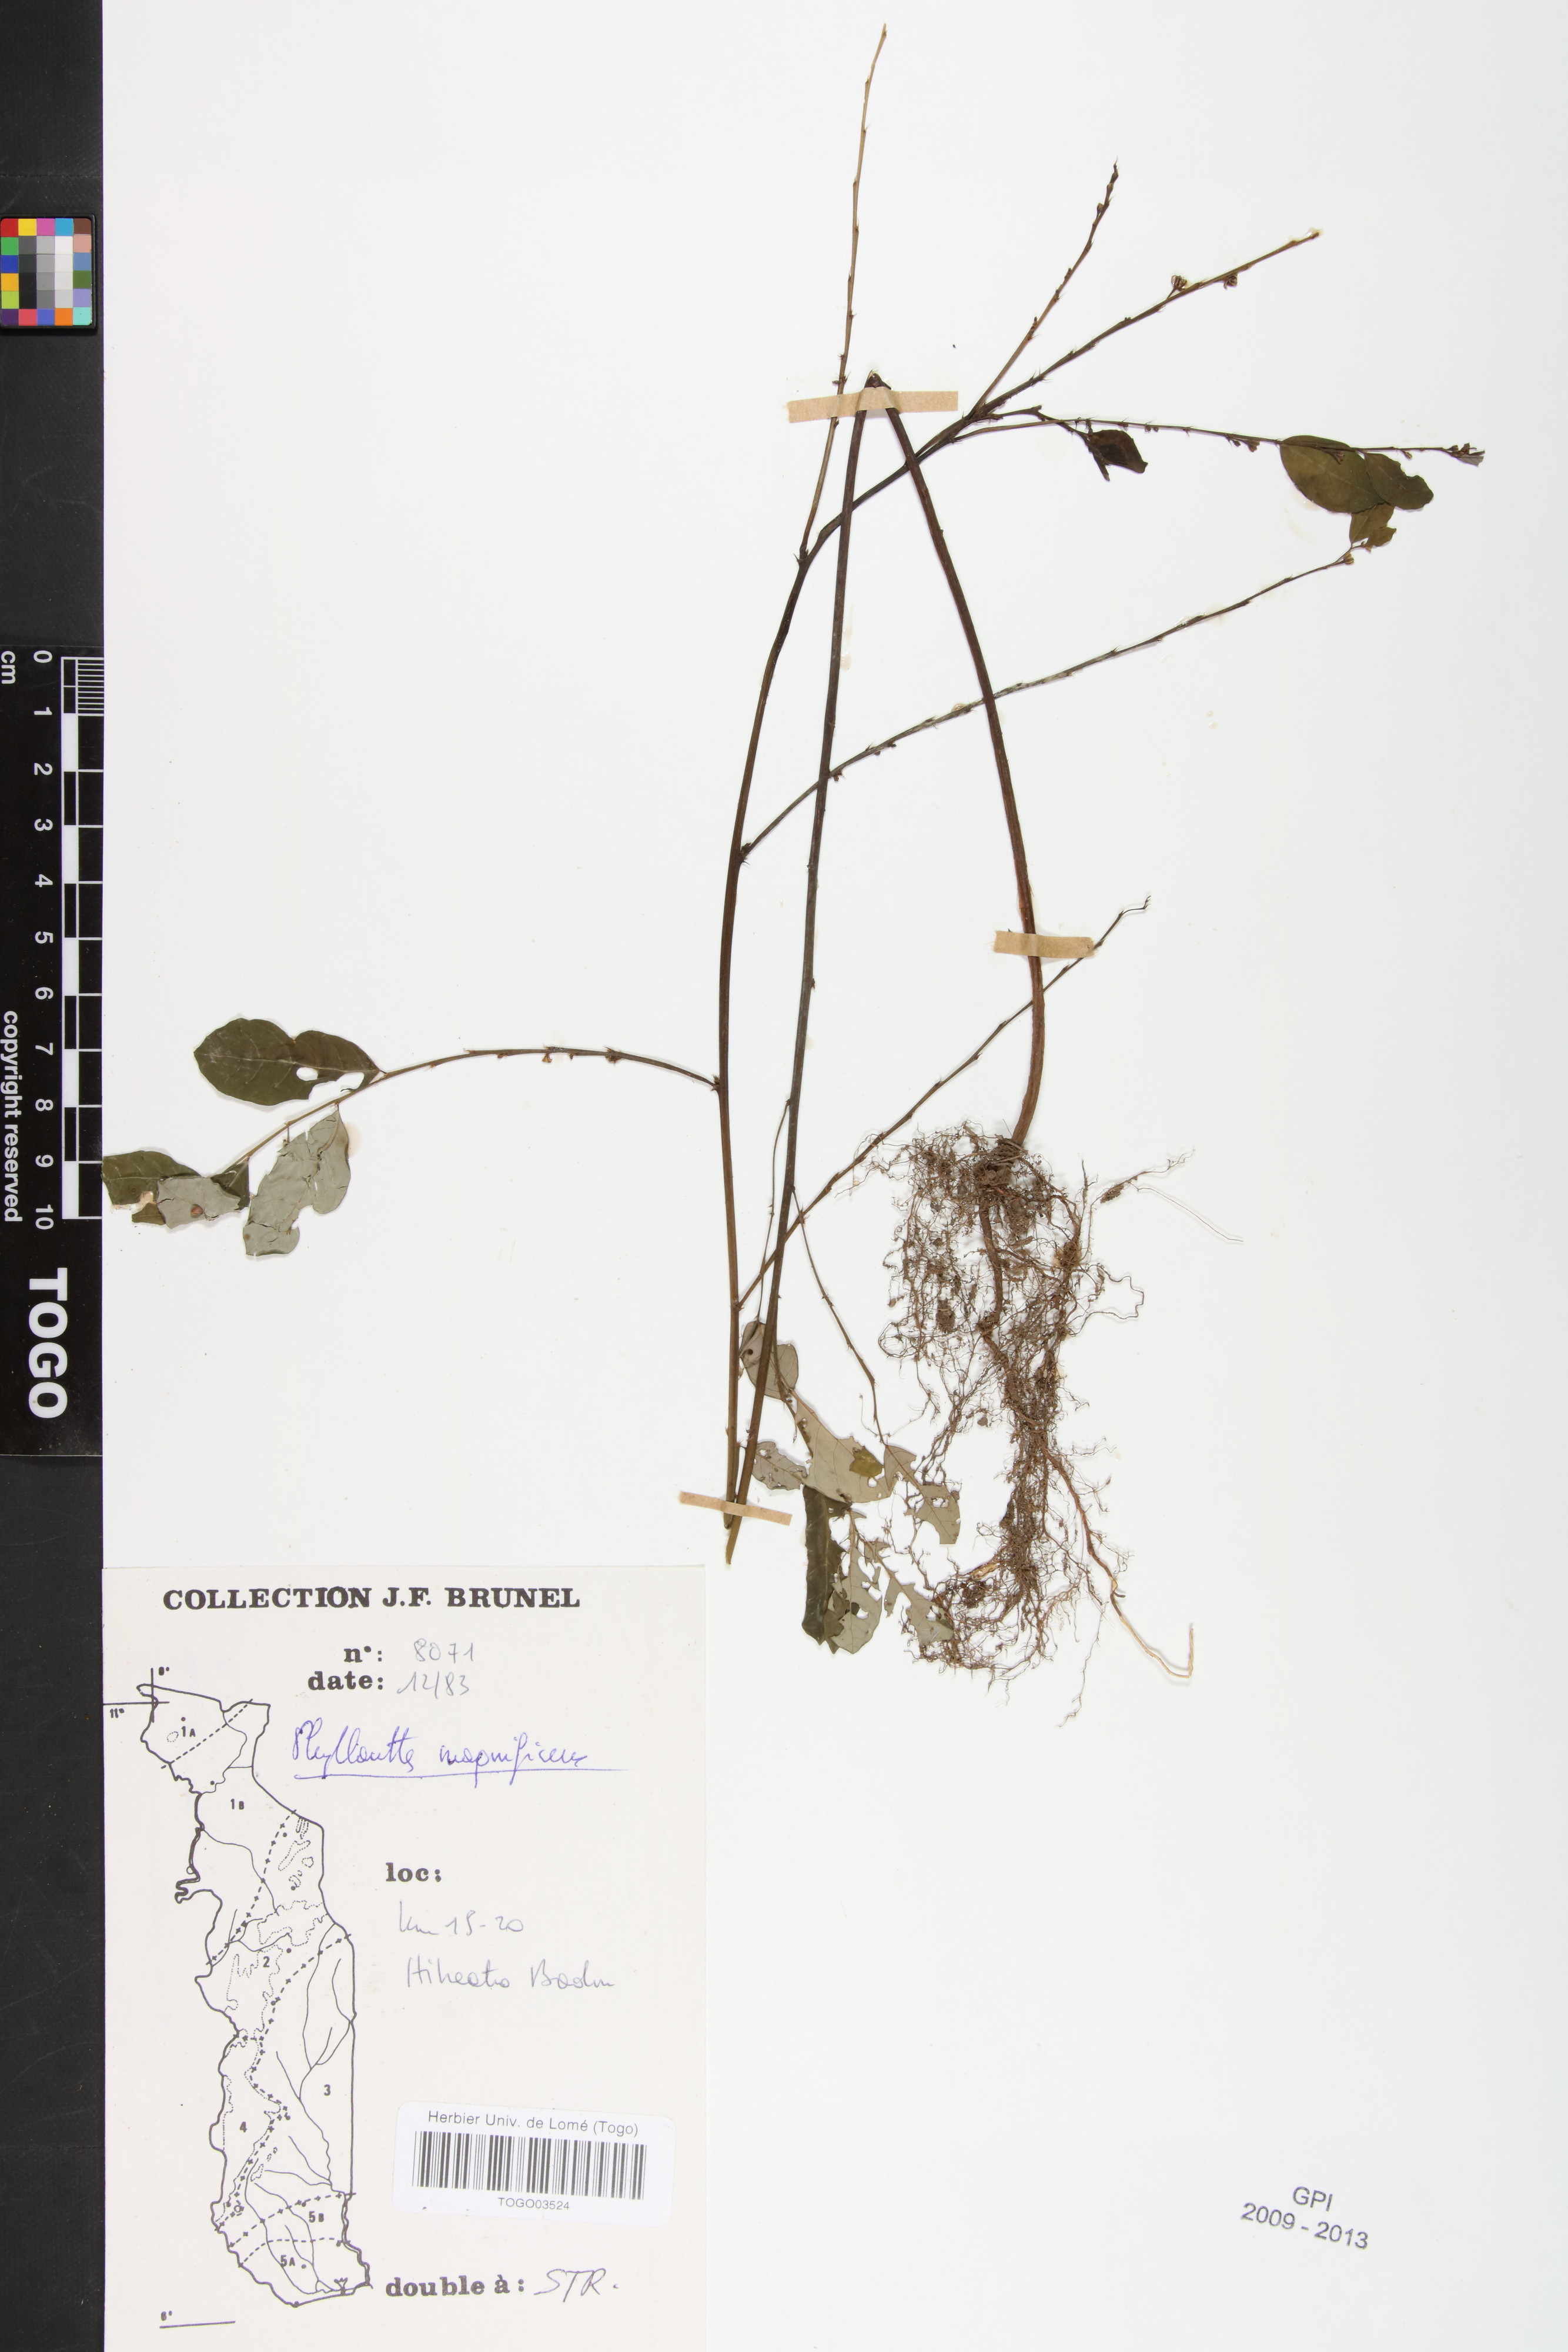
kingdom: Plantae
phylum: Tracheophyta
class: Magnoliopsida
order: Malpighiales
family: Phyllanthaceae
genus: Phyllanthus
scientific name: Phyllanthus magnificens
